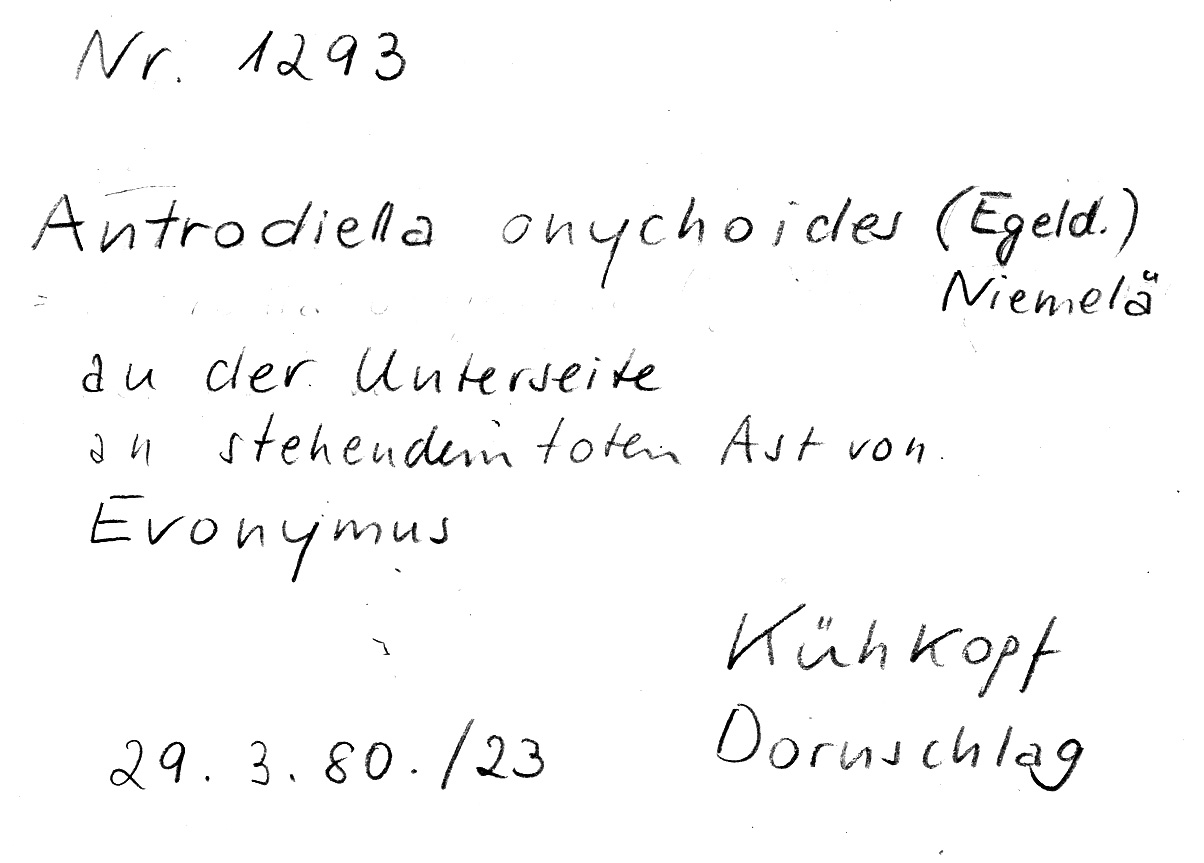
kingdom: Fungi
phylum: Basidiomycota
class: Agaricomycetes
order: Polyporales
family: Steccherinaceae
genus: Antrodiella
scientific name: Antrodiella onychoides
